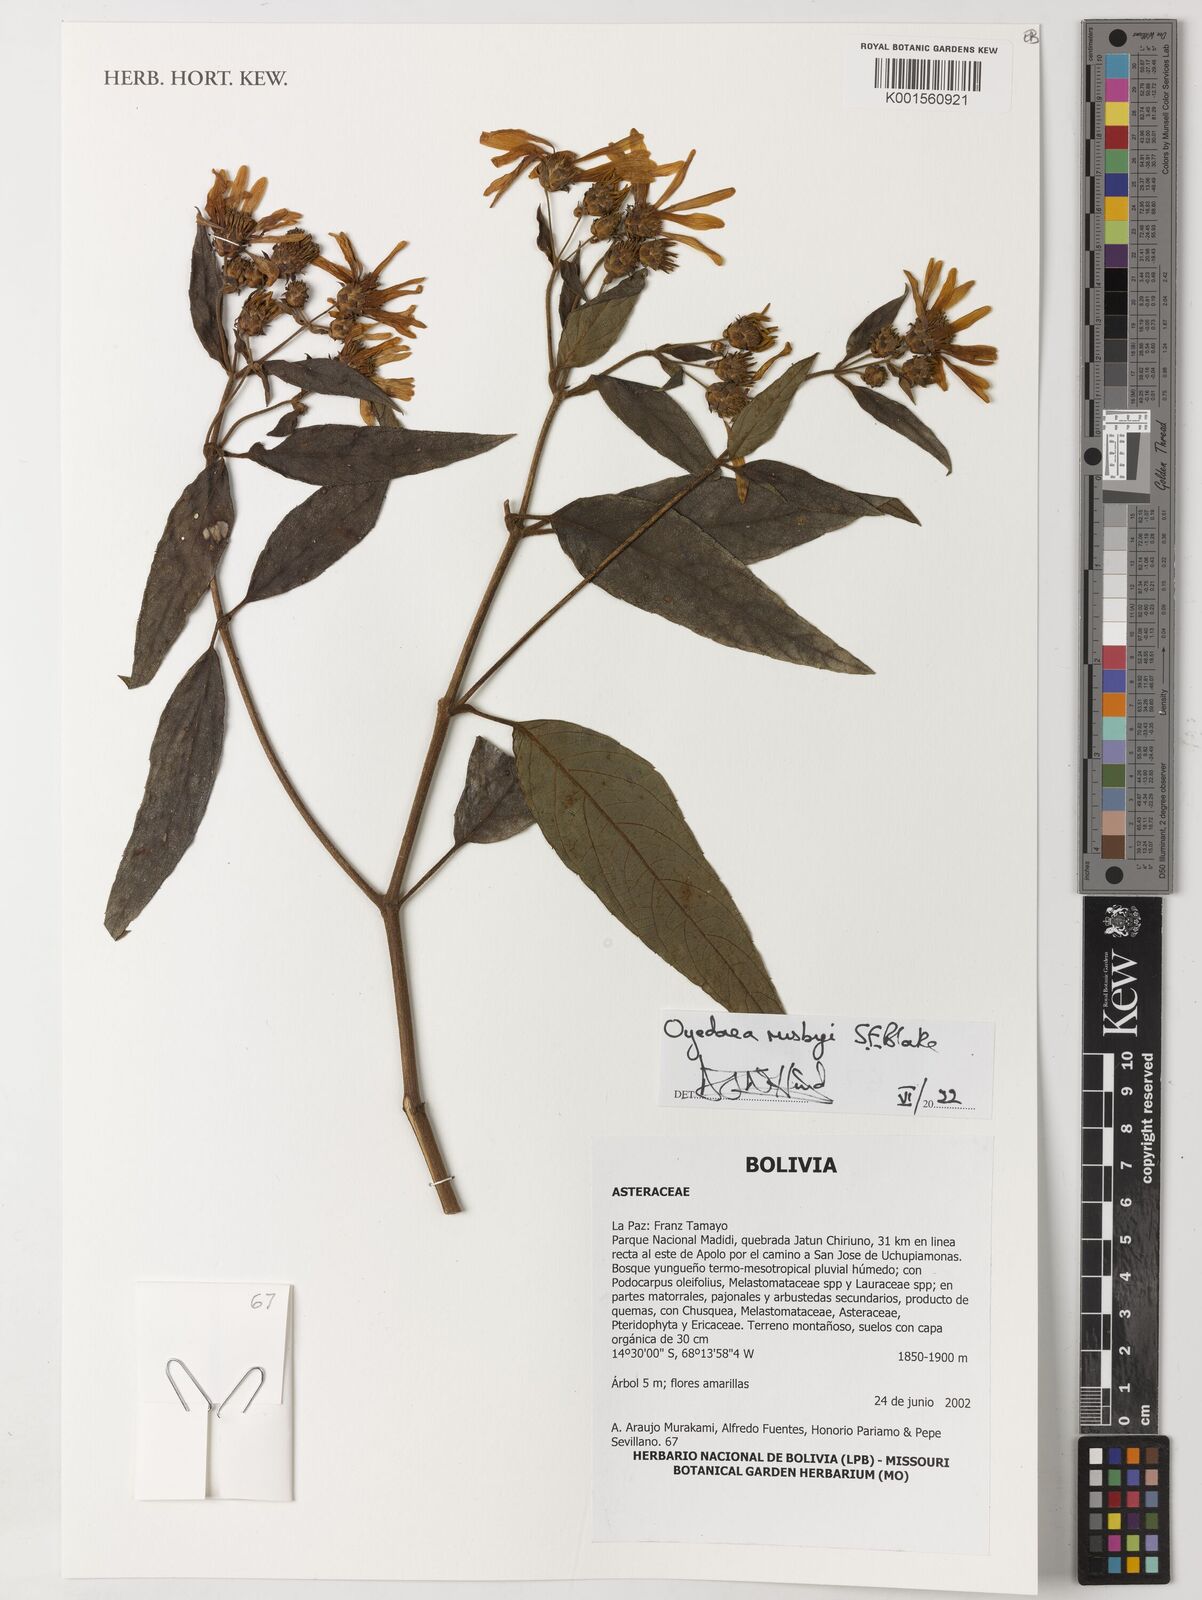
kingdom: Plantae
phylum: Tracheophyta
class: Magnoliopsida
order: Asterales
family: Asteraceae
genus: Oyedaea
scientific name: Oyedaea rusbyi
